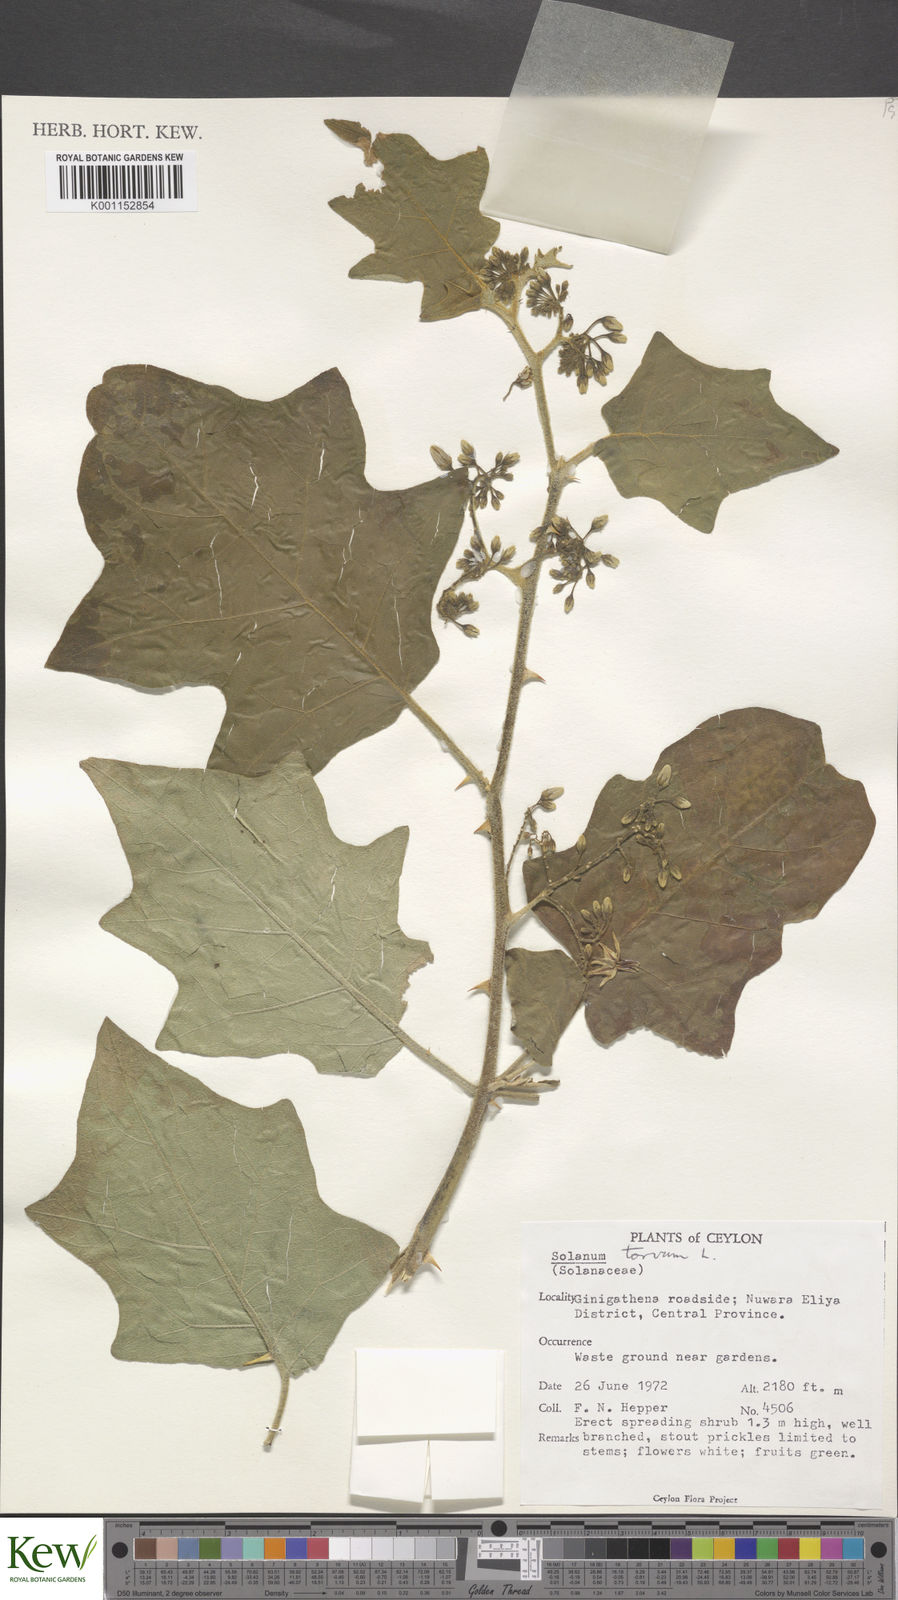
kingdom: Plantae
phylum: Tracheophyta
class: Magnoliopsida
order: Solanales
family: Solanaceae
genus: Solanum
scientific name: Solanum torvum
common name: Turkey berry
